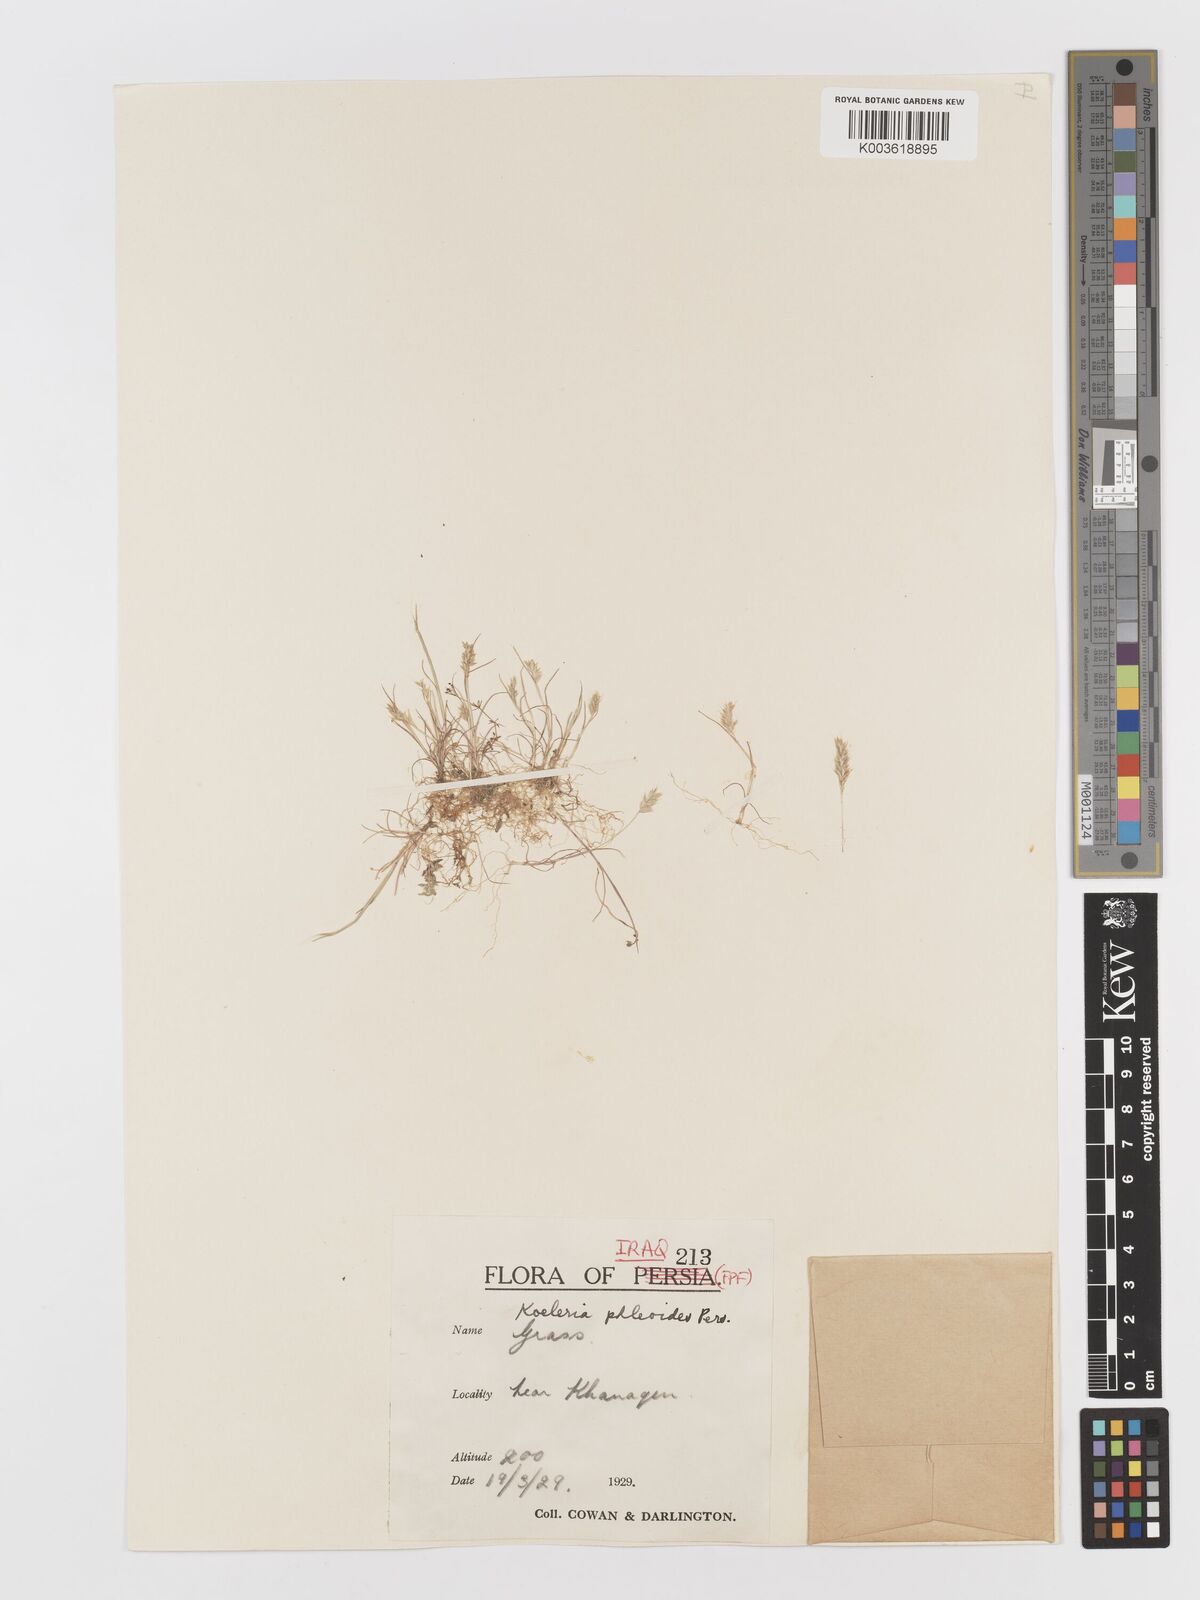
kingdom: Plantae
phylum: Tracheophyta
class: Liliopsida
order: Poales
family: Poaceae
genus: Rostraria
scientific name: Rostraria cristata
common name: Mediterranean hair-grass
